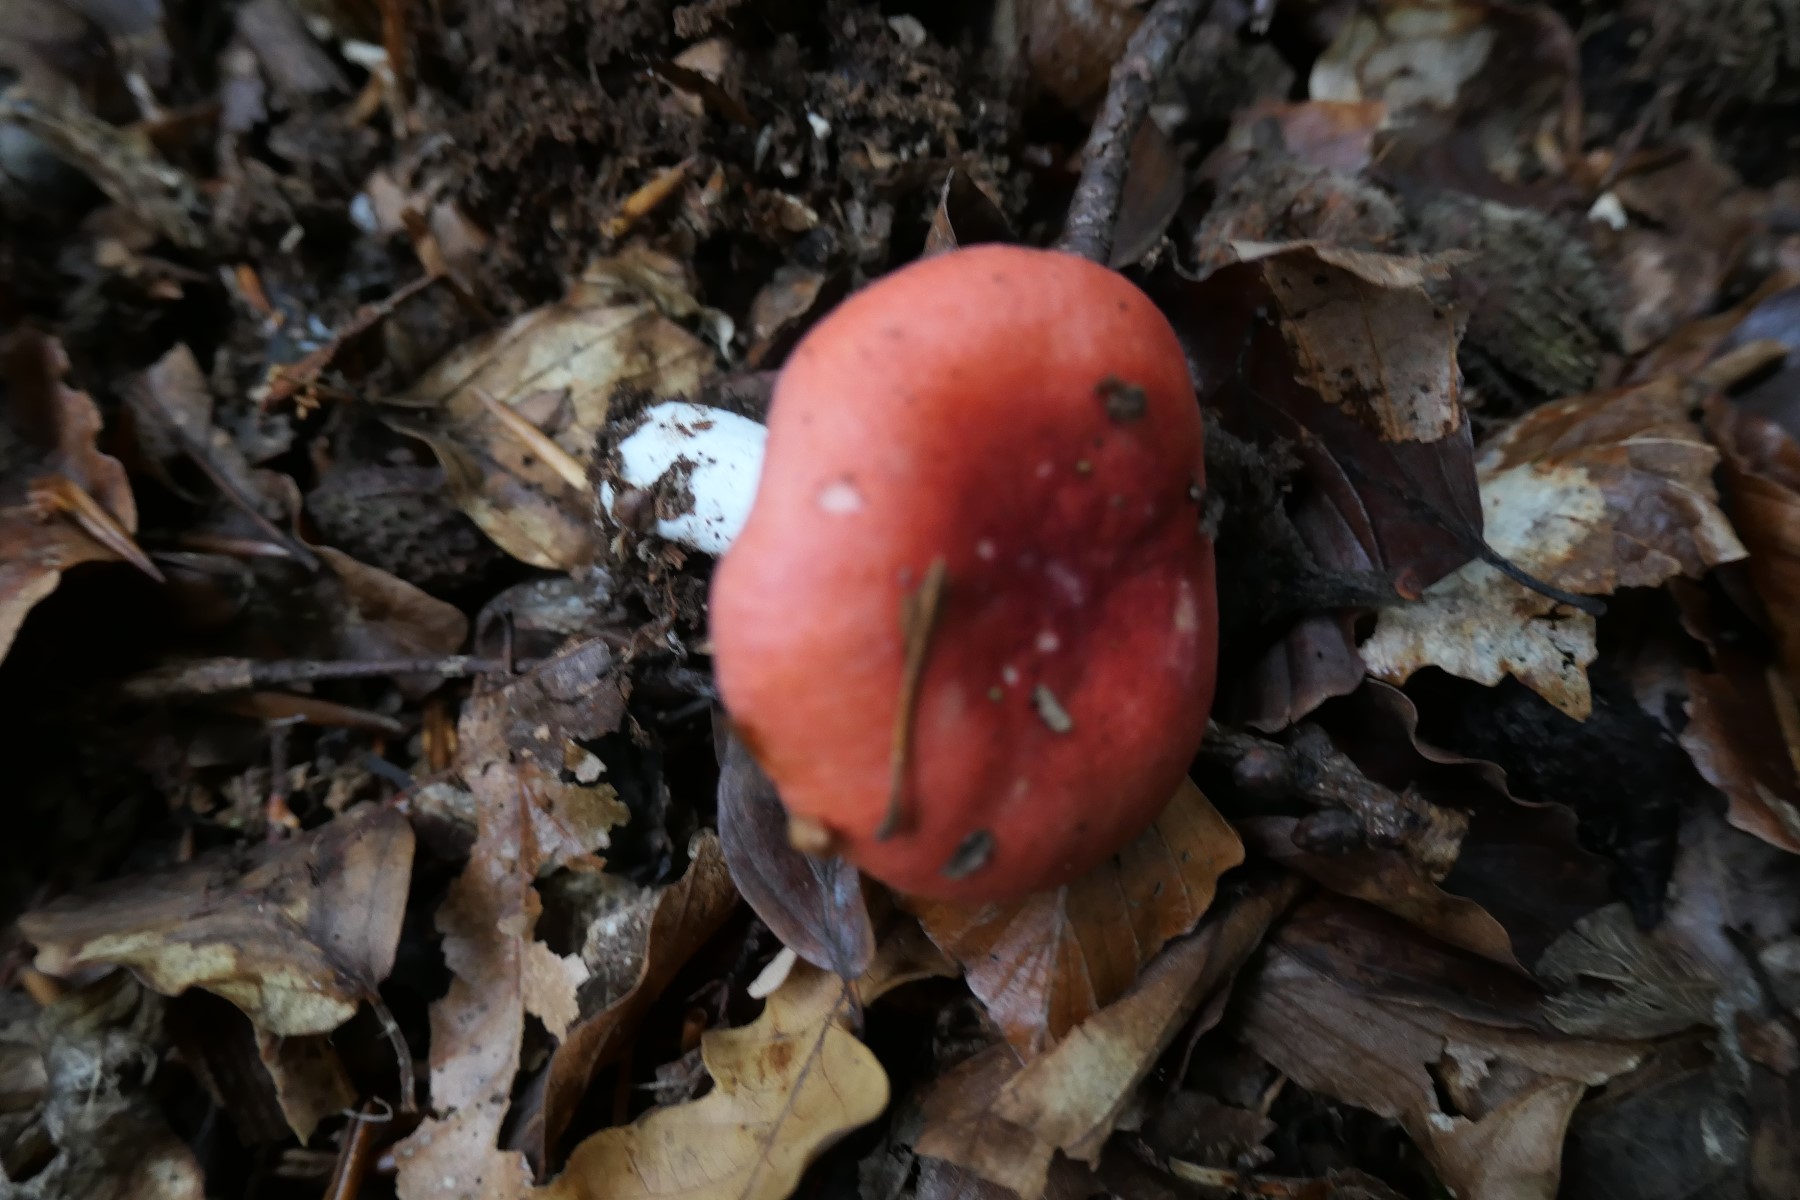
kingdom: Fungi
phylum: Basidiomycota
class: Agaricomycetes
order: Russulales
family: Russulaceae
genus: Russula
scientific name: Russula nobilis
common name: lille gift-skørhat
